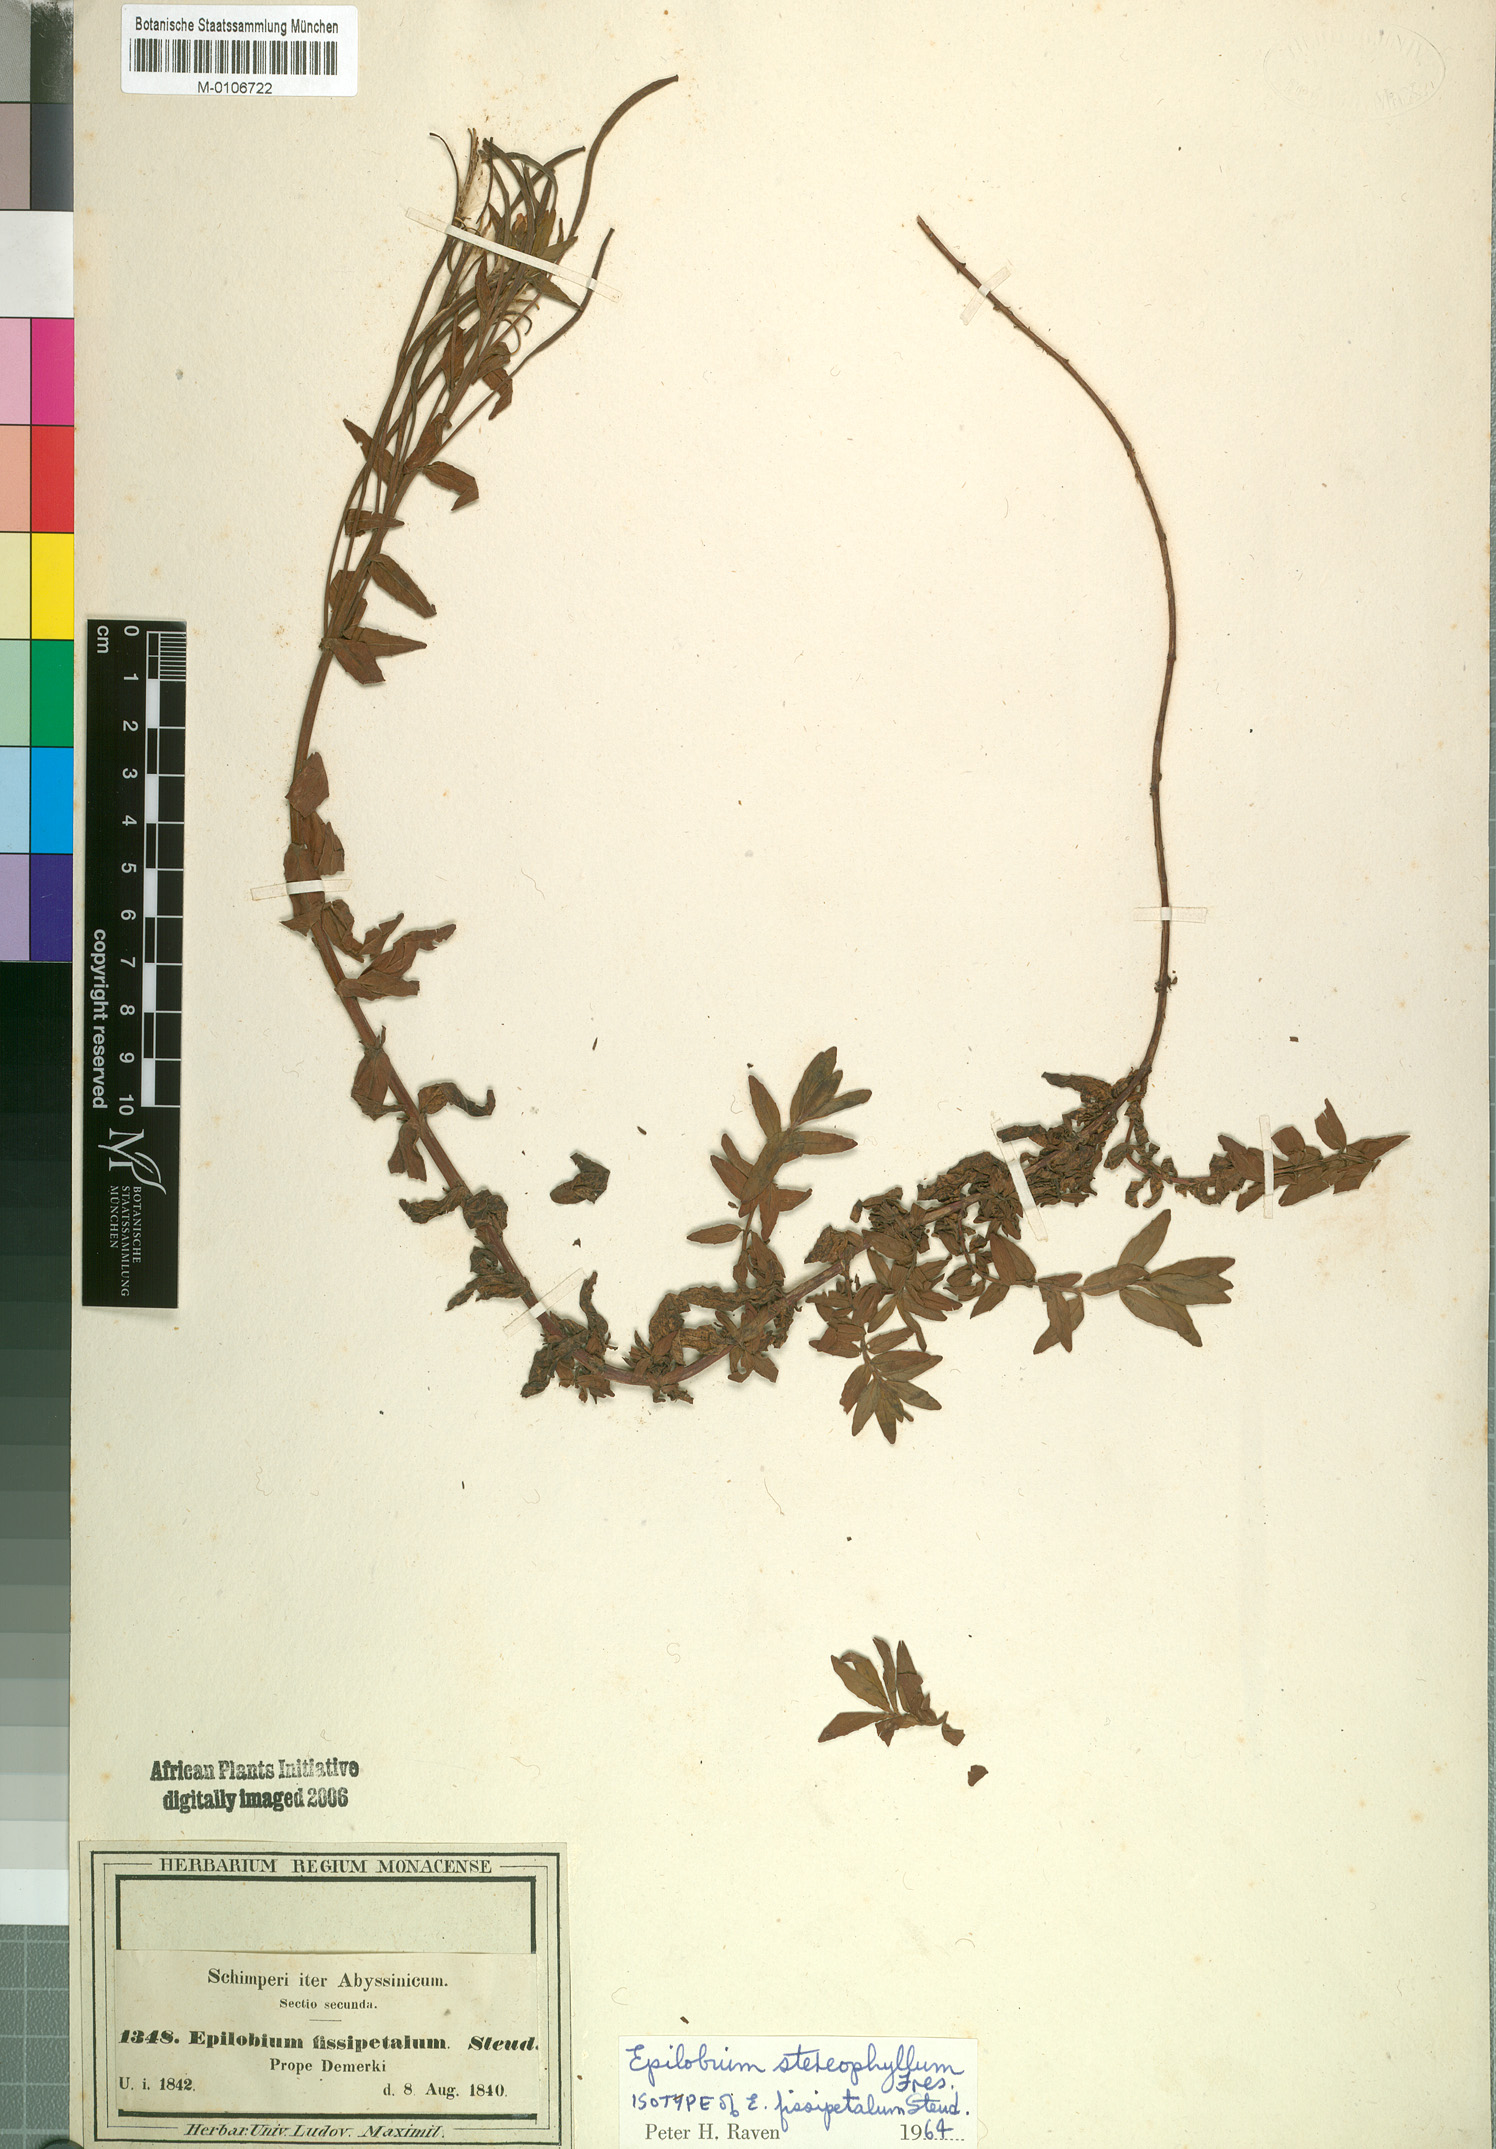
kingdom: Plantae
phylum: Tracheophyta
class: Magnoliopsida
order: Myrtales
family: Onagraceae
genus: Epilobium
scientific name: Epilobium stereophyllum
